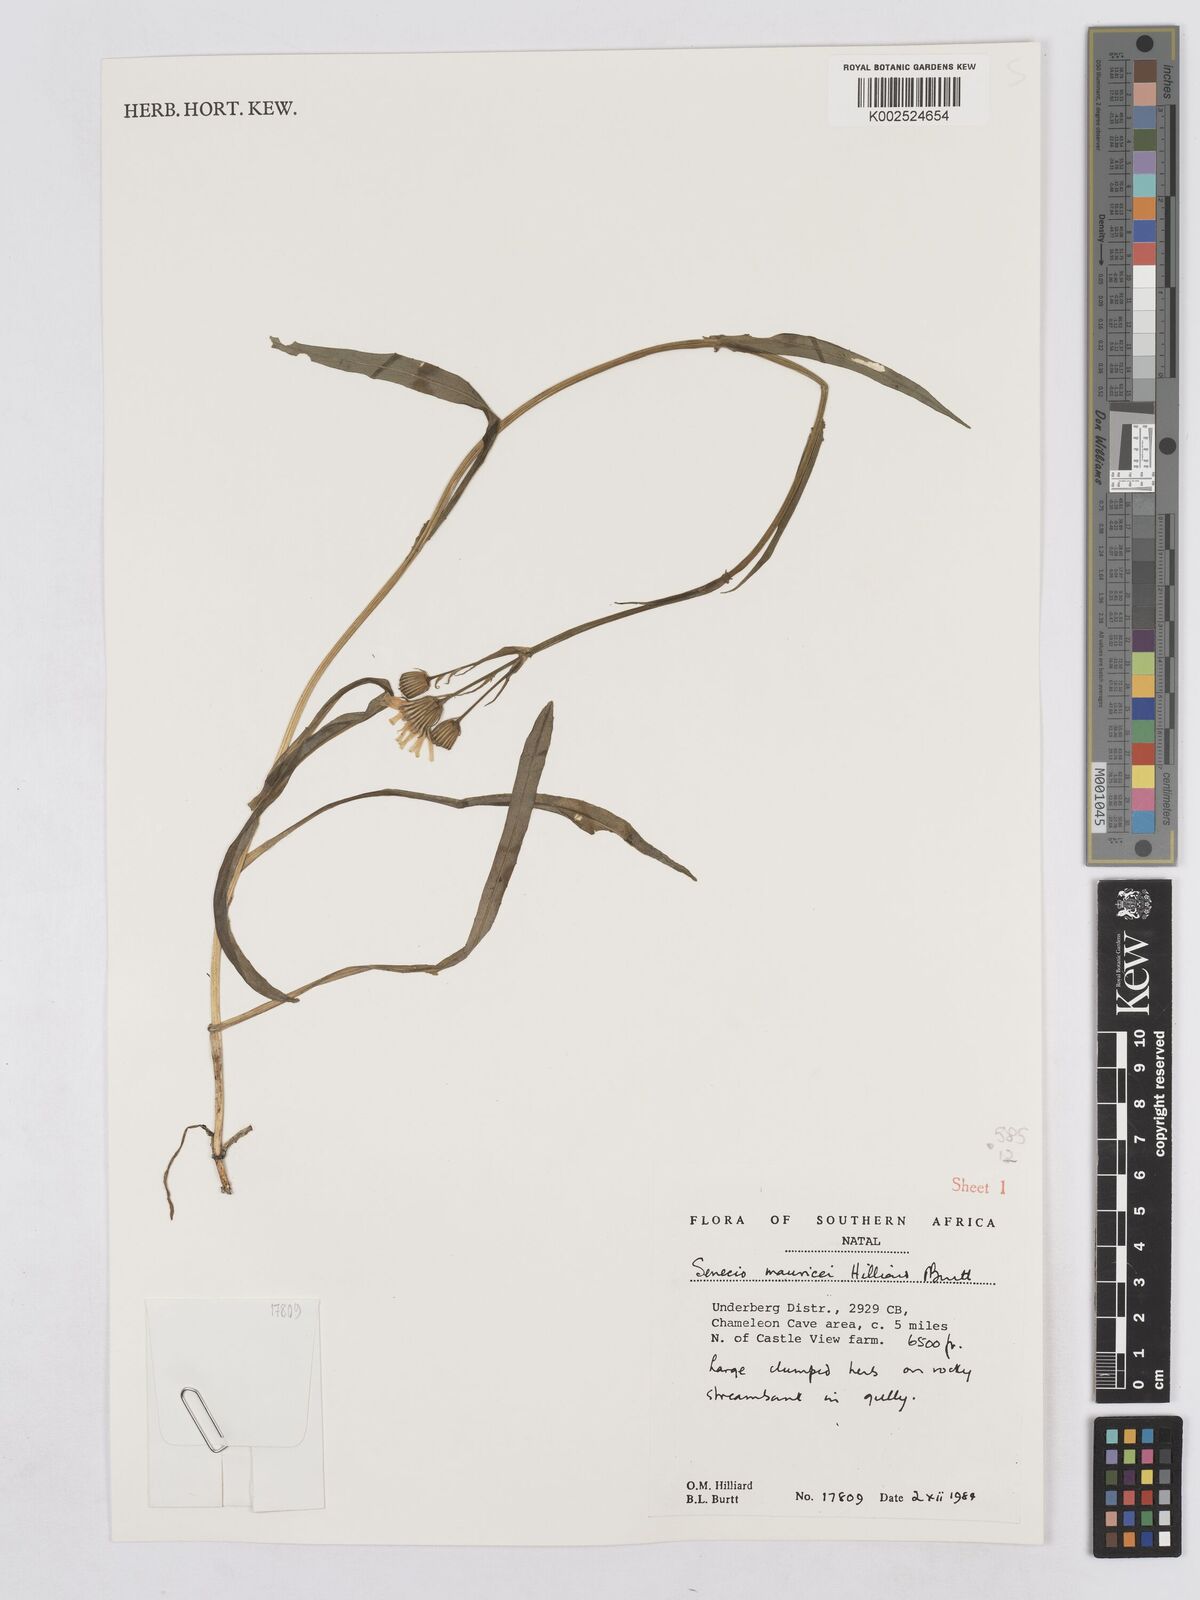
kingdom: Plantae
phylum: Tracheophyta
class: Magnoliopsida
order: Asterales
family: Asteraceae
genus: Senecio
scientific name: Senecio mauricei
